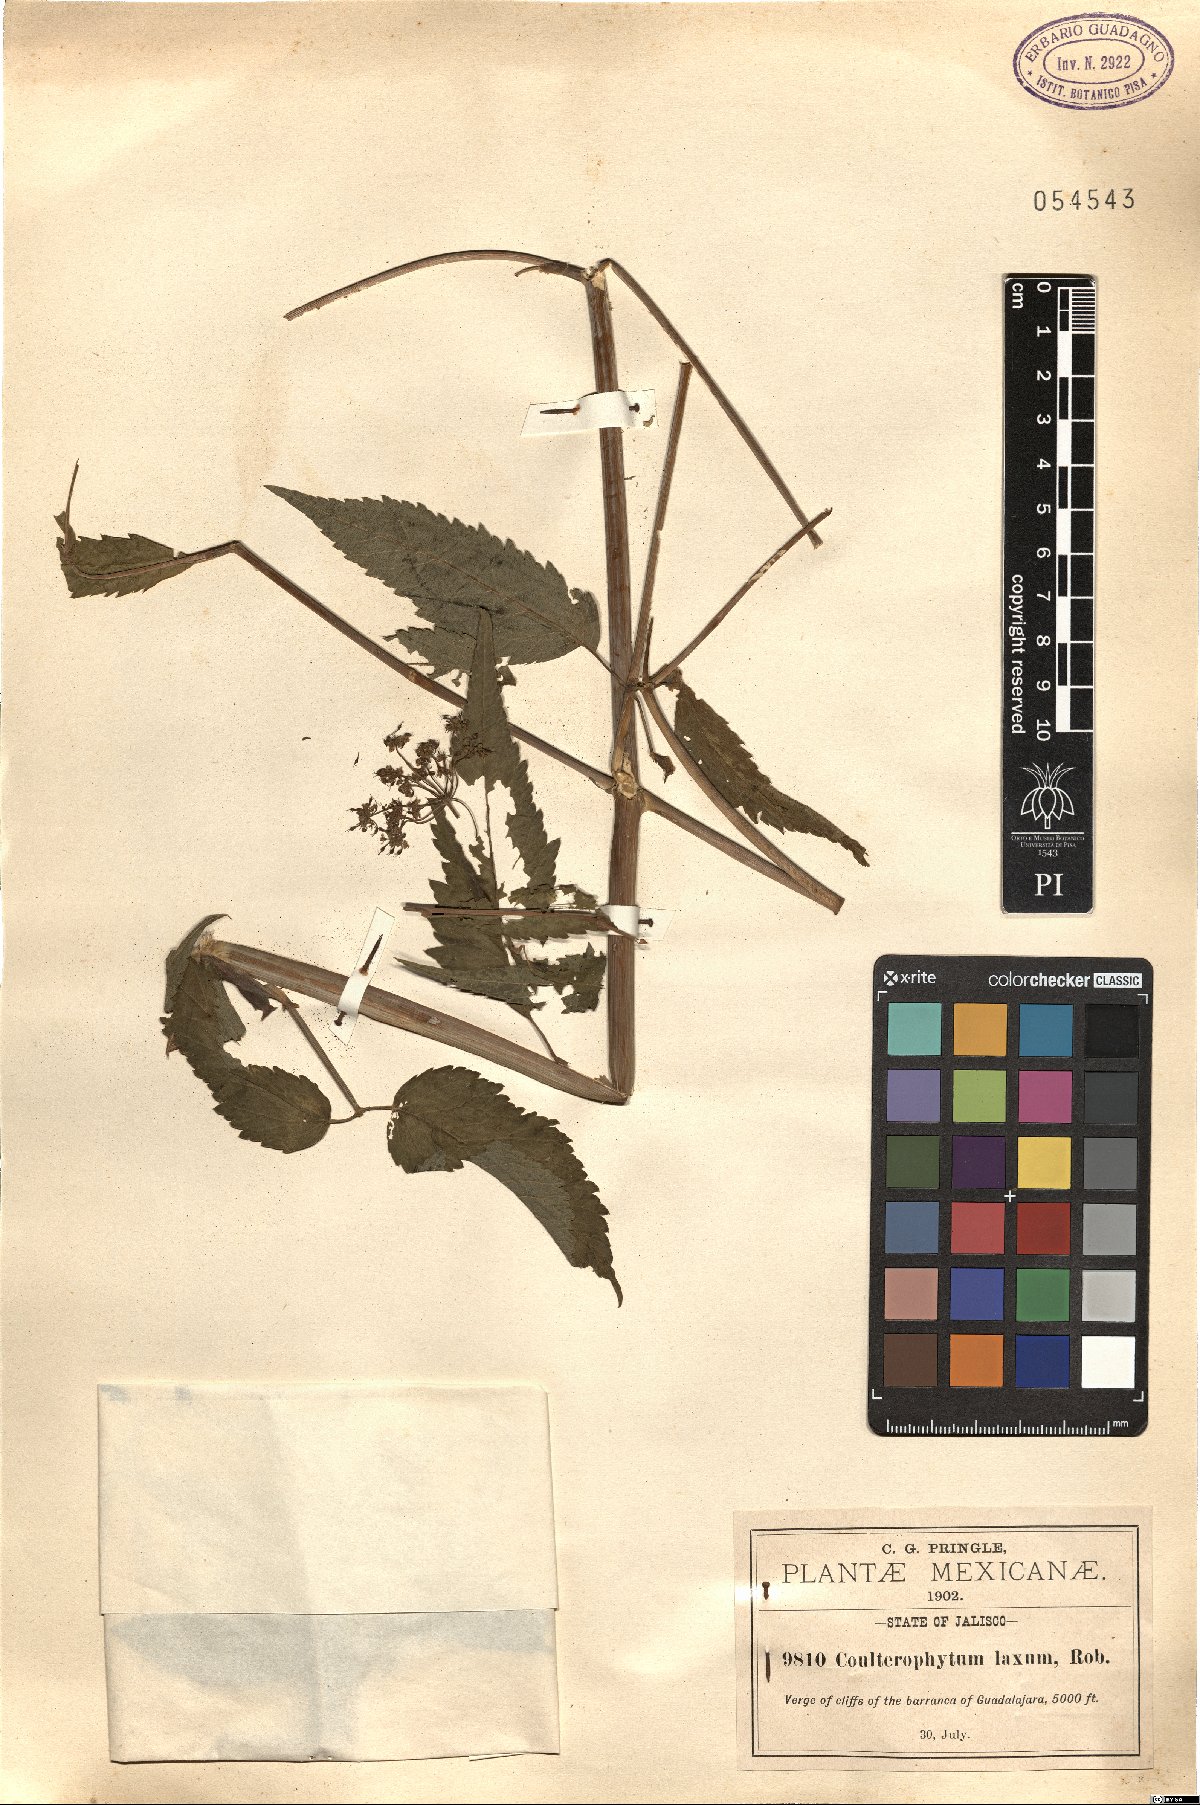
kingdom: Plantae
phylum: Tracheophyta
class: Magnoliopsida
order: Apiales
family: Apiaceae
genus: Coulterophytum
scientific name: Coulterophytum laxum
